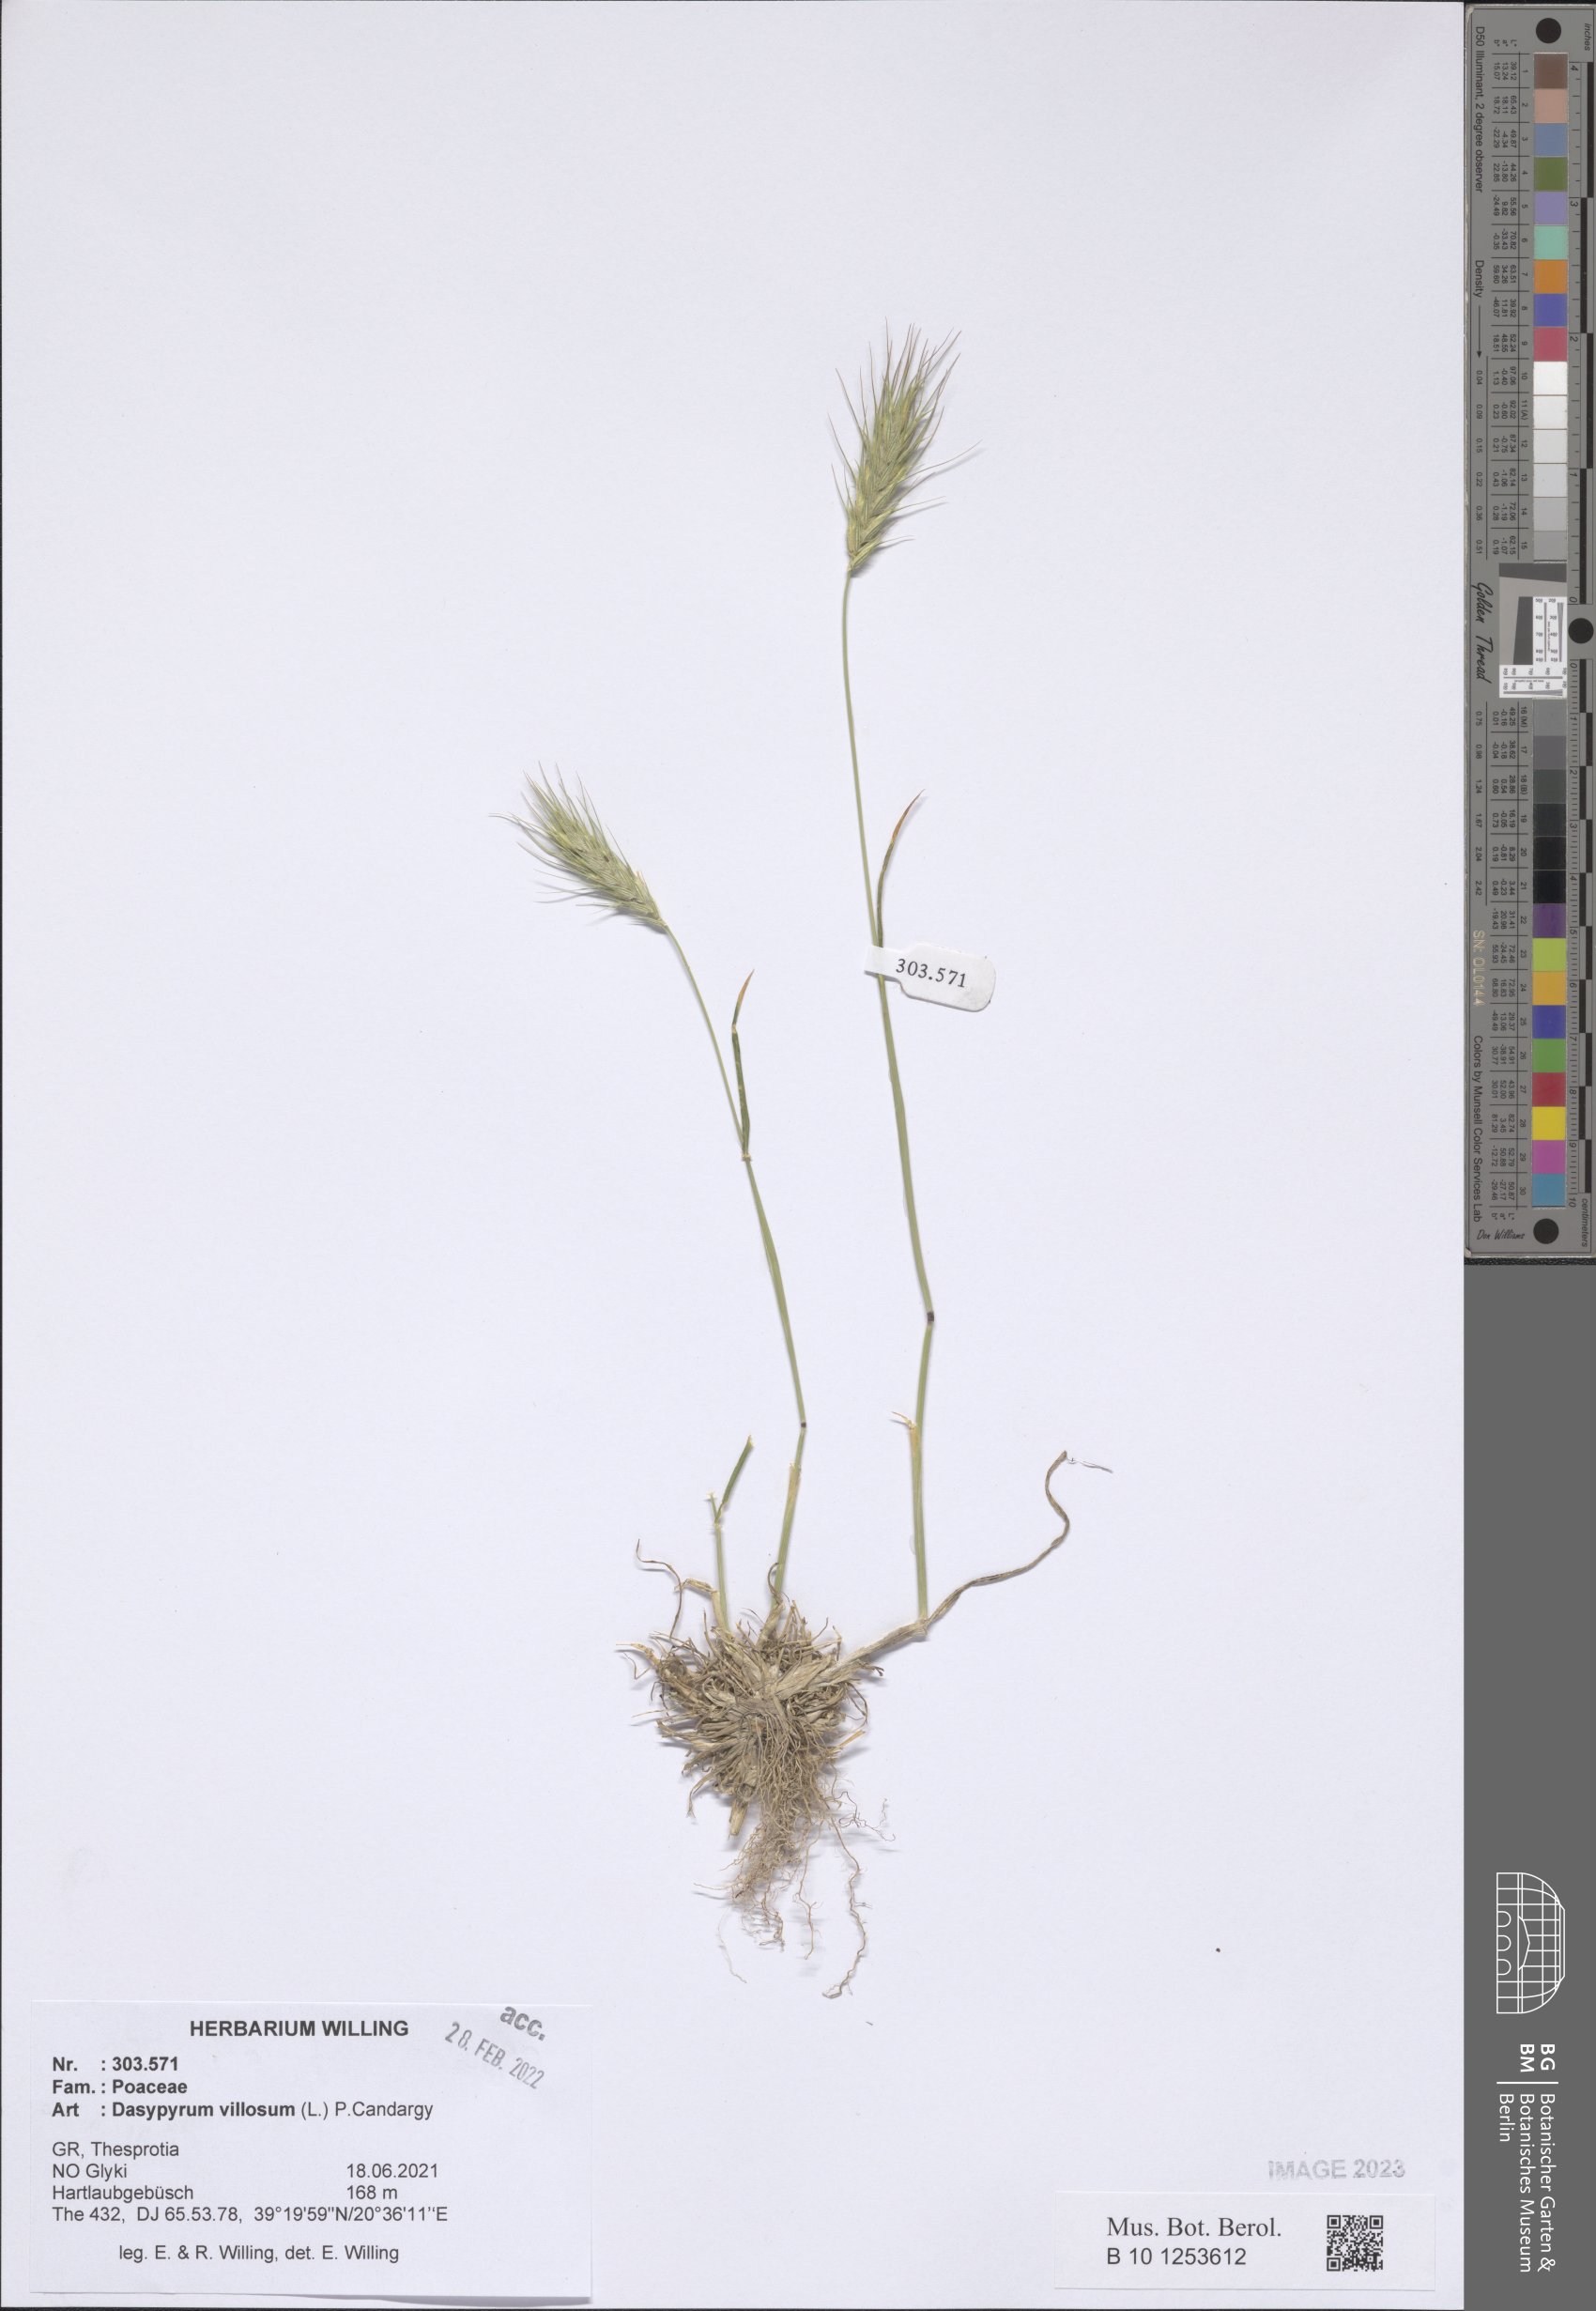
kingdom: Plantae
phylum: Tracheophyta
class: Liliopsida
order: Poales
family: Poaceae
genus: Dasypyrum
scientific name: Dasypyrum villosum
